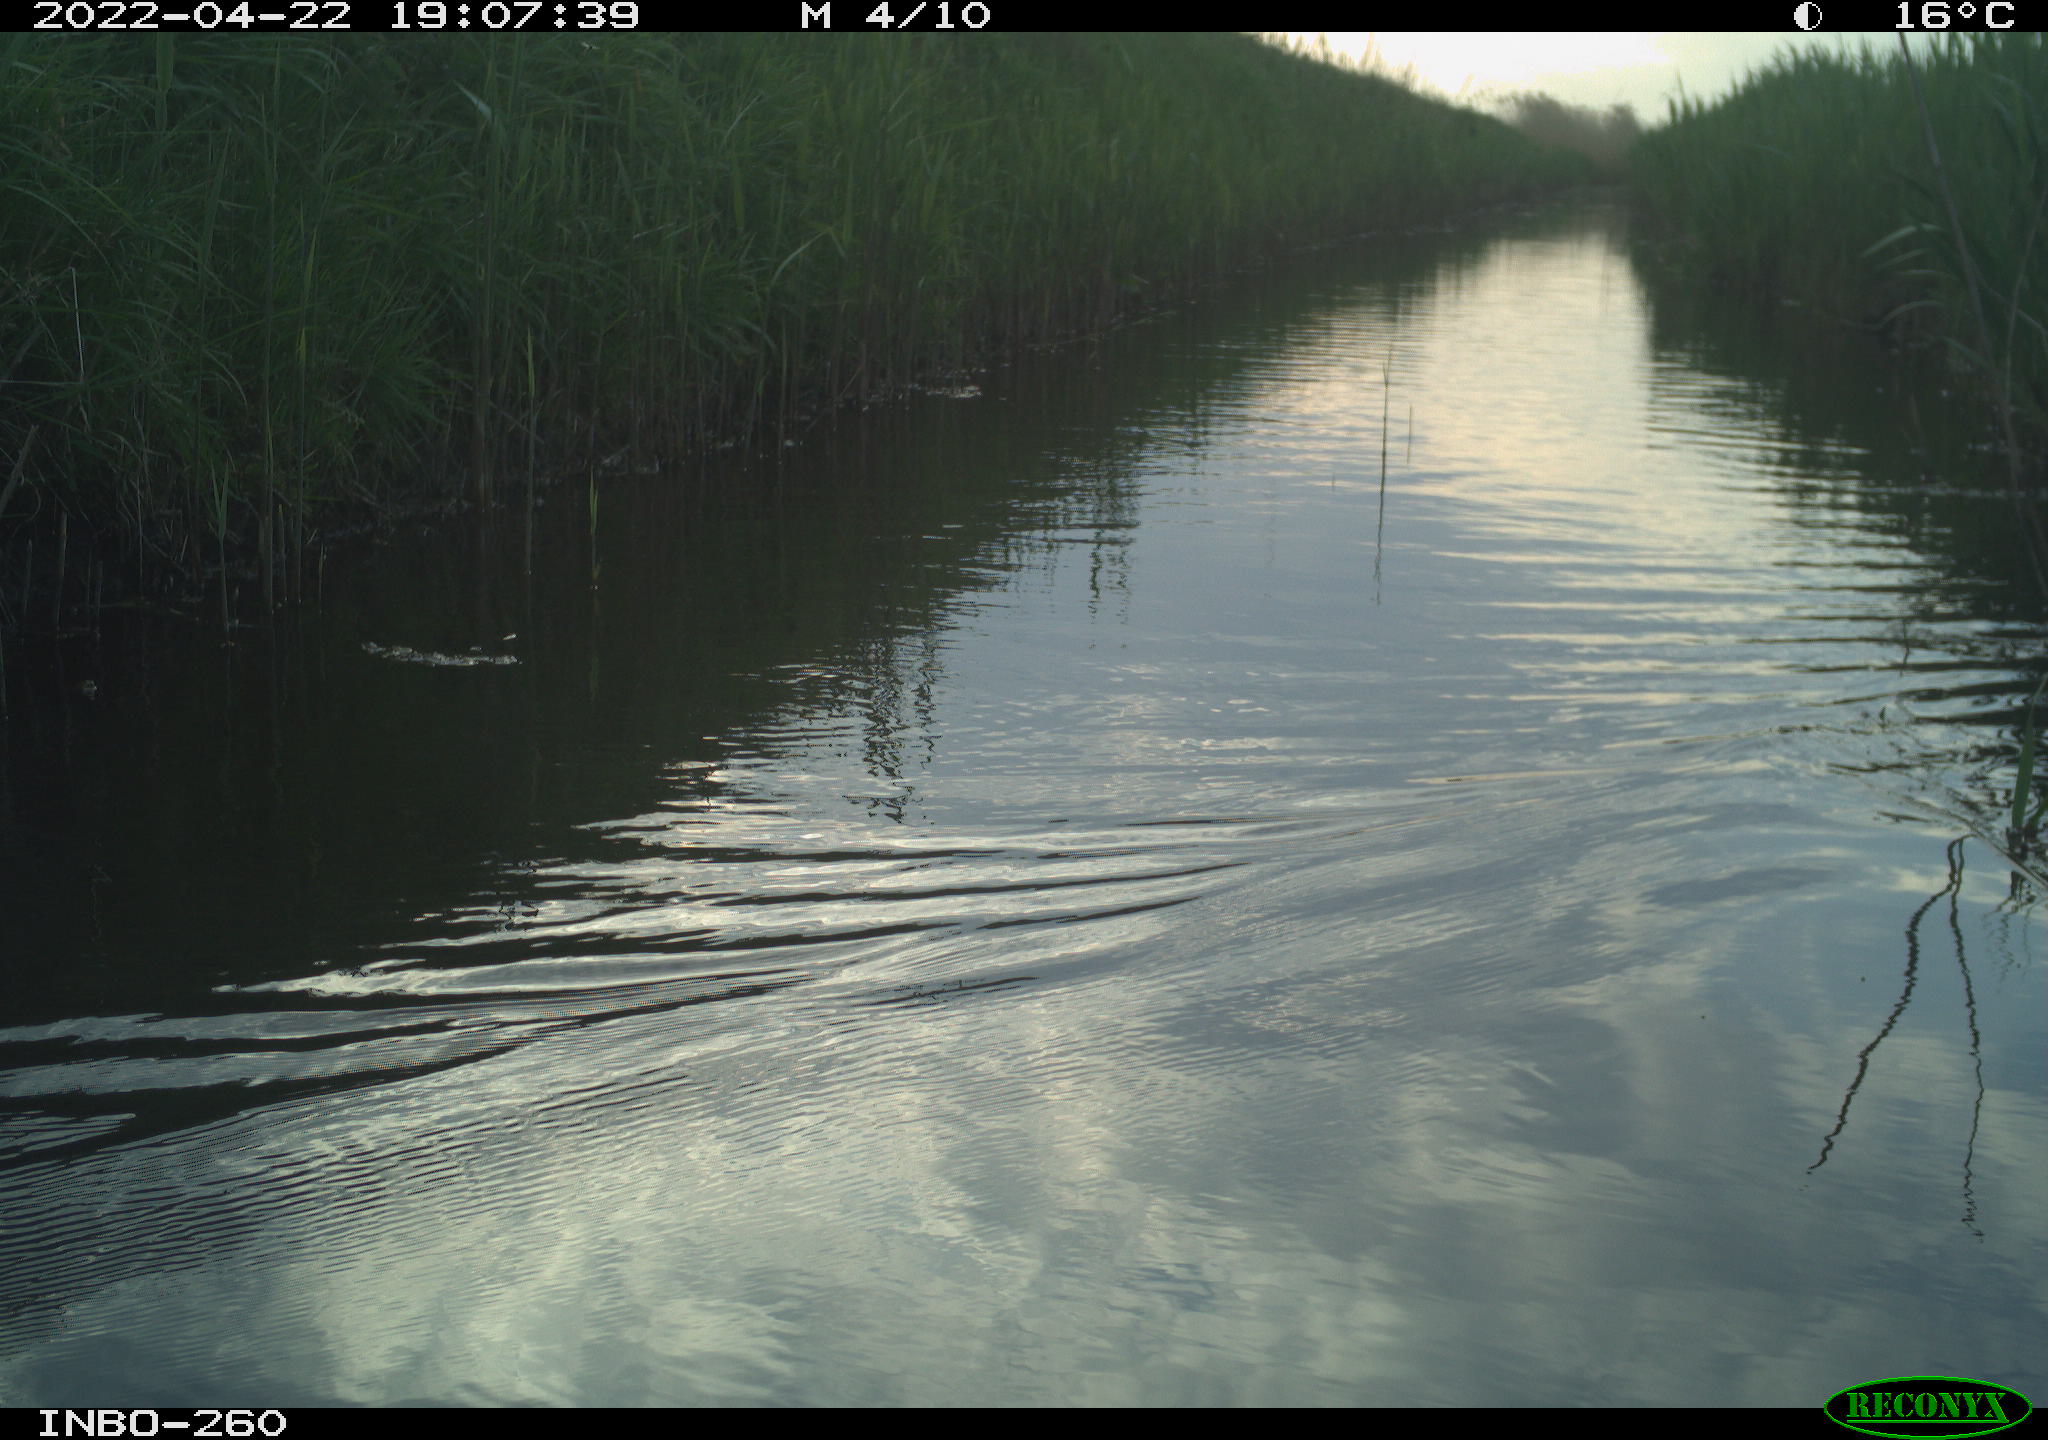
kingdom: Animalia
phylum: Chordata
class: Aves
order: Gruiformes
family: Rallidae
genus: Fulica
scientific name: Fulica atra
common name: Eurasian coot
